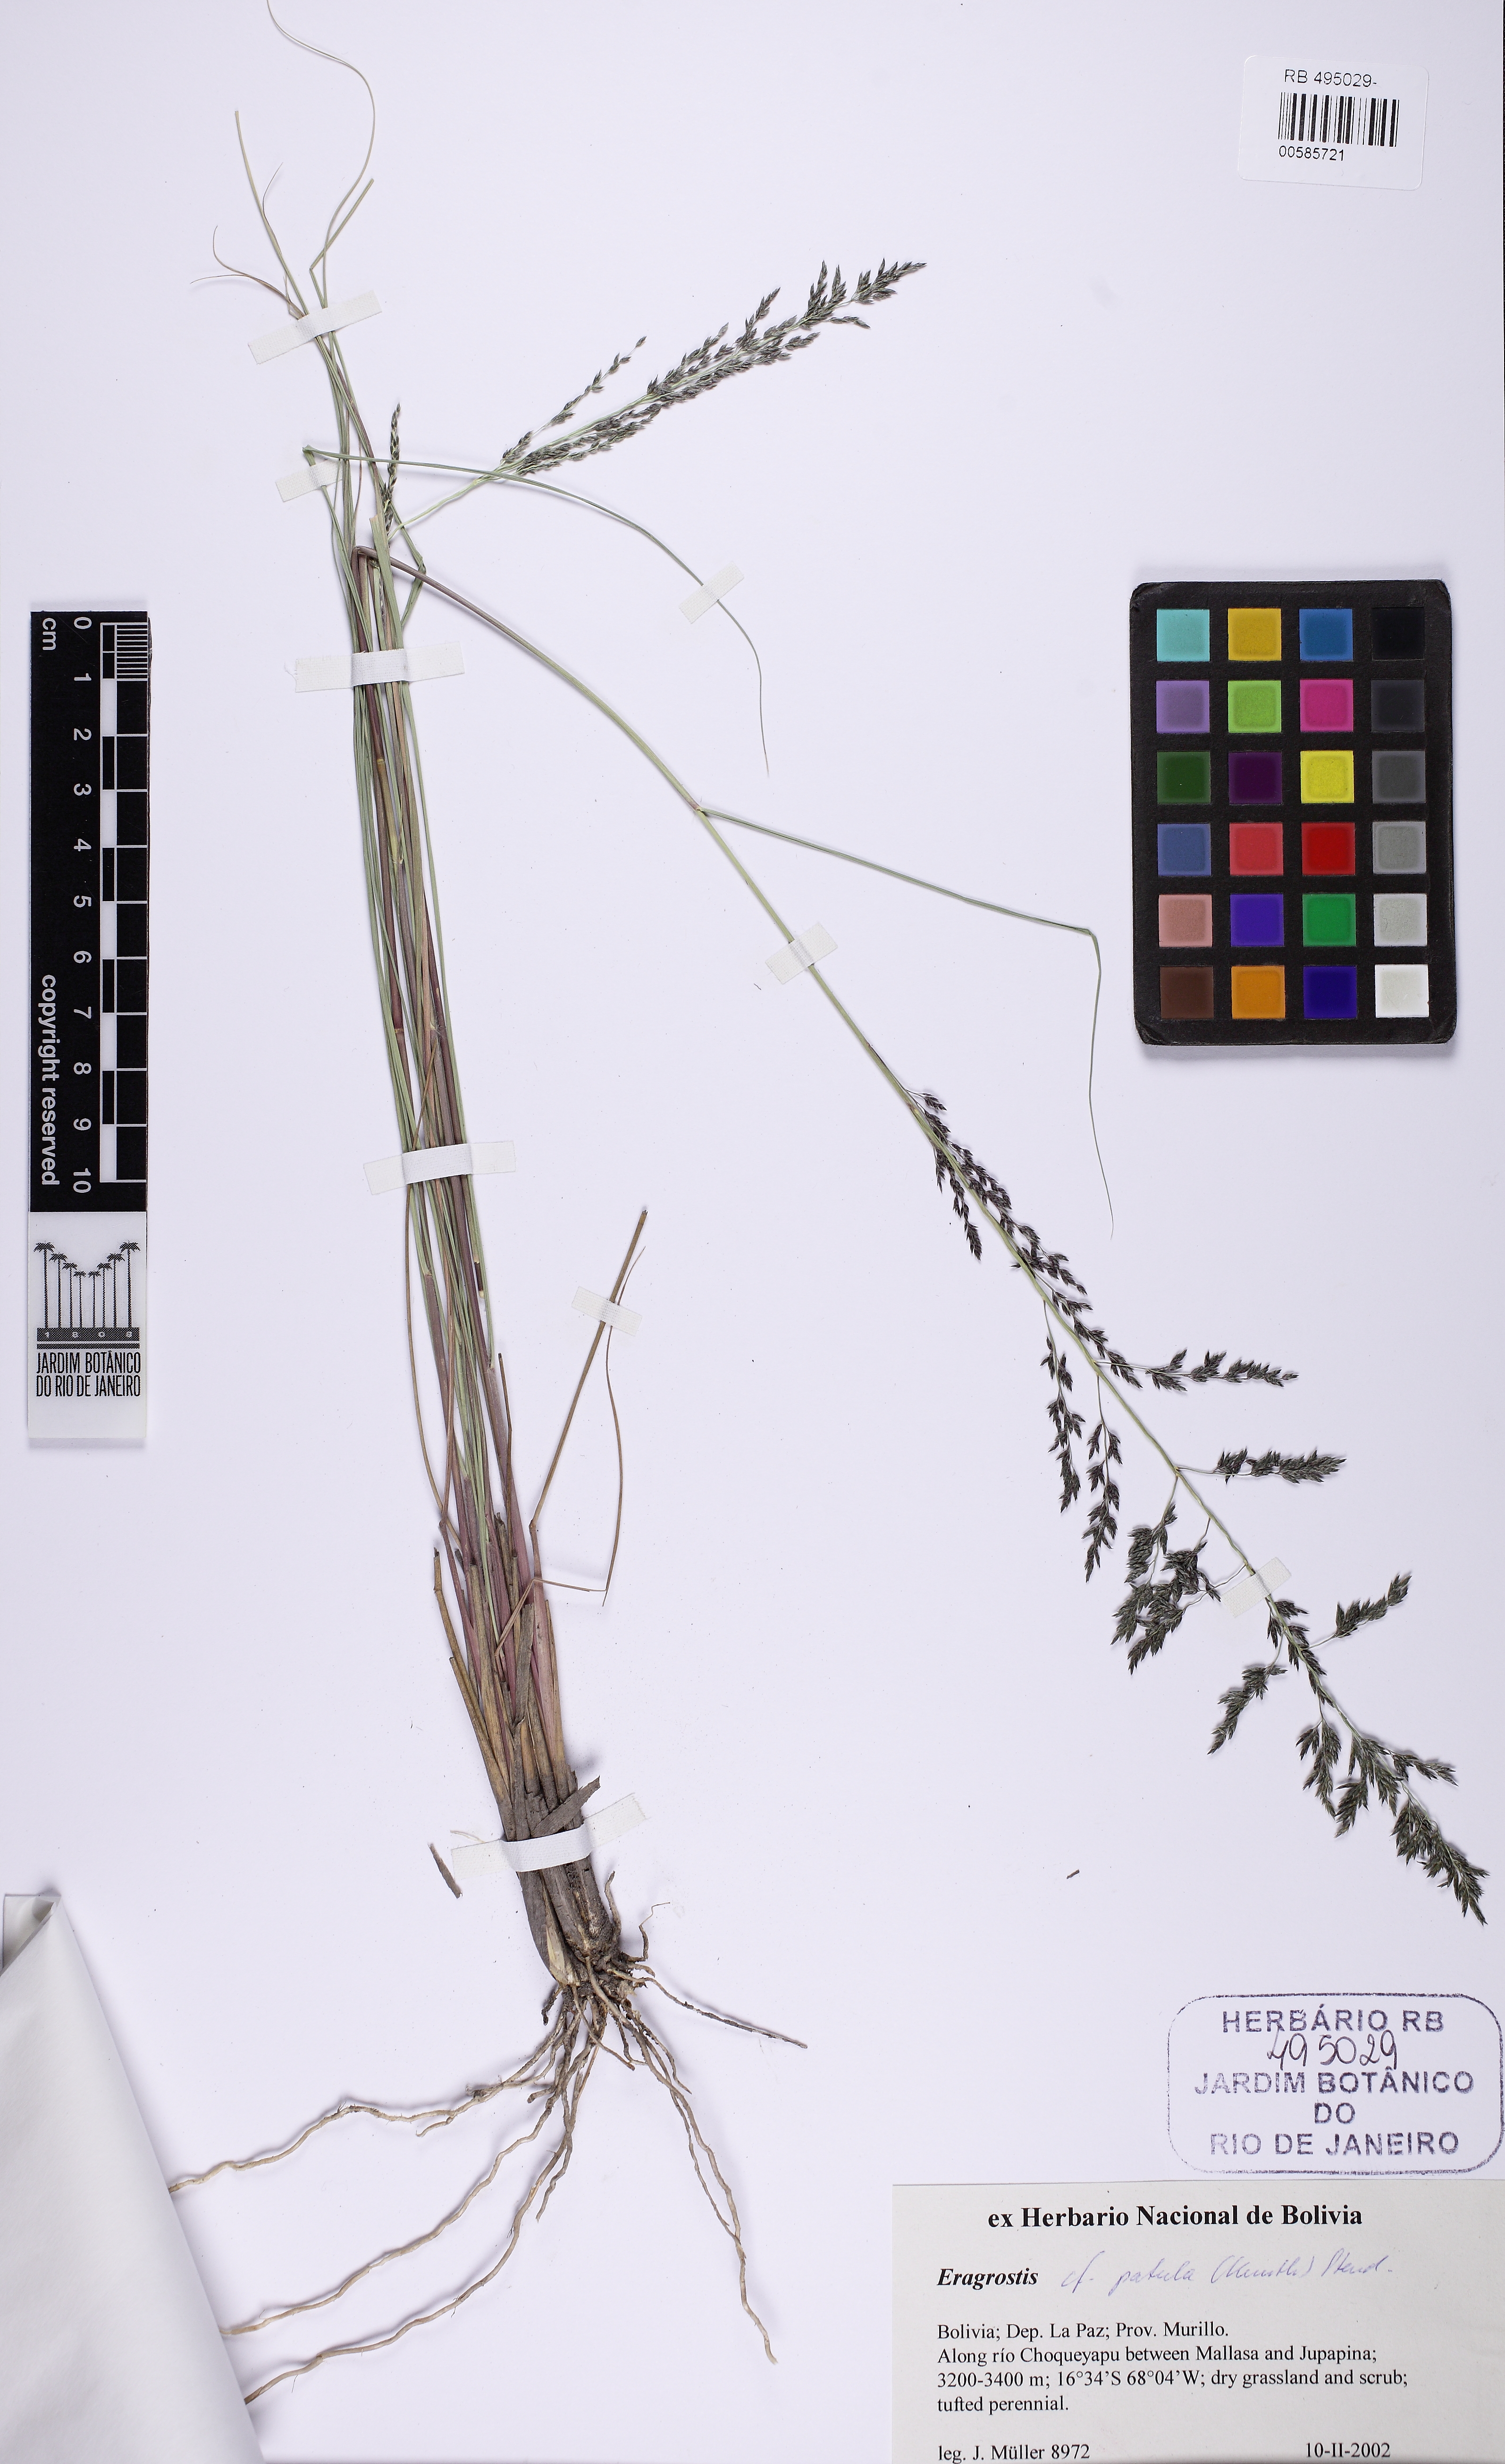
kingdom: Plantae
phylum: Tracheophyta
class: Liliopsida
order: Poales
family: Poaceae
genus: Eragrostis
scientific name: Eragrostis patula
